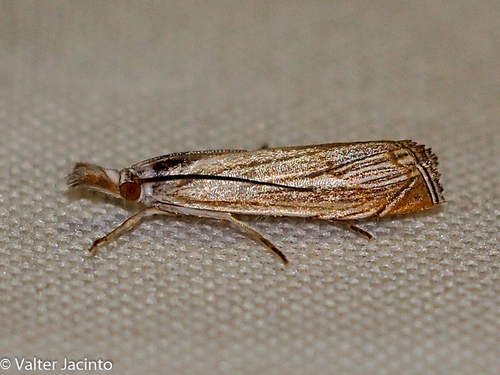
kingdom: Animalia
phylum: Arthropoda
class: Insecta
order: Lepidoptera
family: Crambidae
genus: Mesocrambus
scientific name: Mesocrambus tamsi
